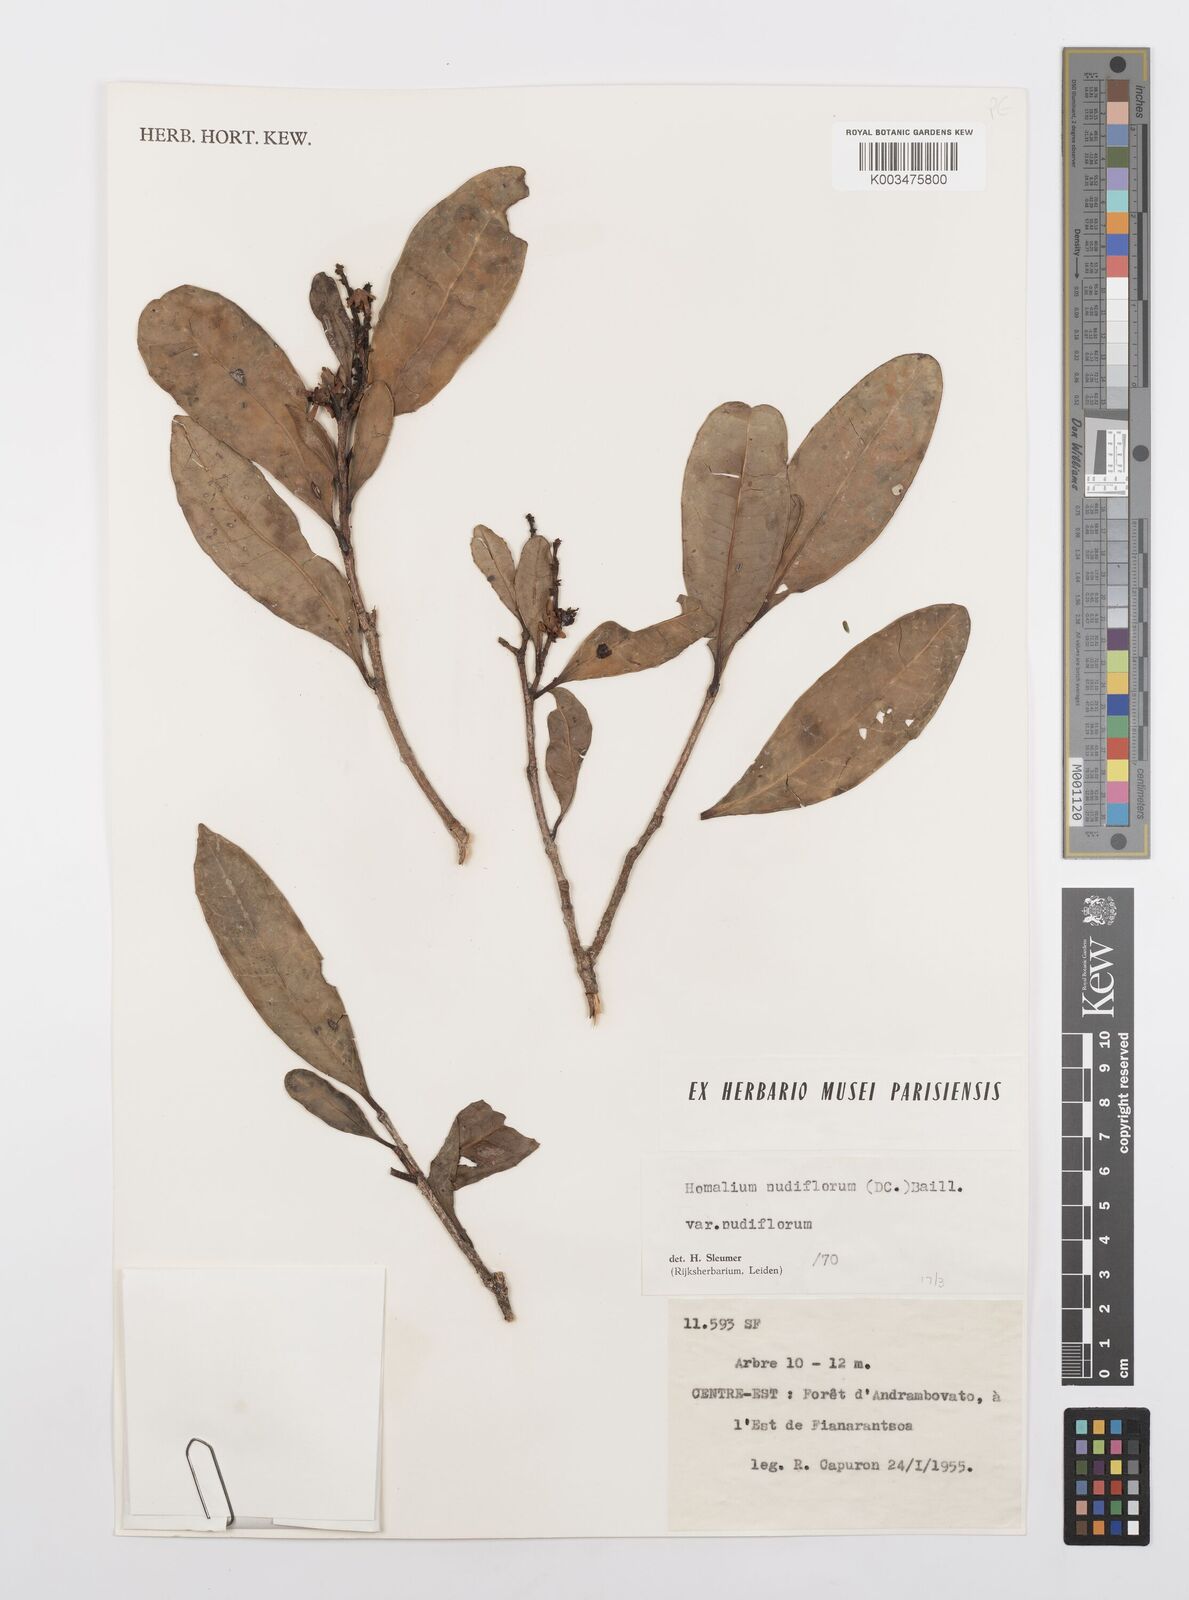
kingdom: Plantae
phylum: Tracheophyta
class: Magnoliopsida
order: Malpighiales
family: Salicaceae
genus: Homalium
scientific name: Homalium nudiflorum
